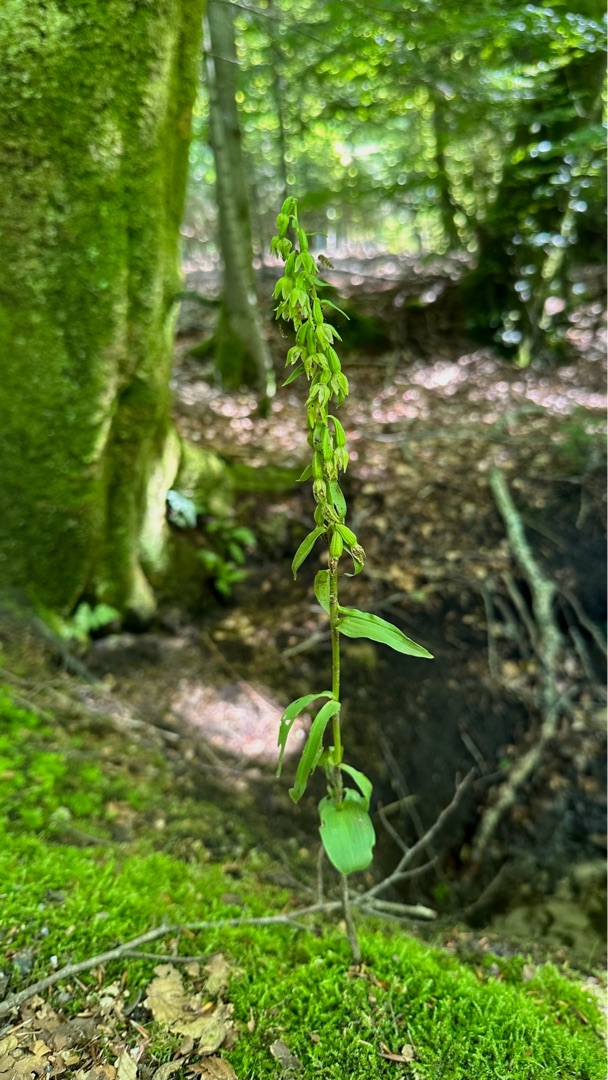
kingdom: Plantae
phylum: Tracheophyta
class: Liliopsida
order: Asparagales
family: Orchidaceae
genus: Epipactis
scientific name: Epipactis phyllanthes
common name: Nikkende hullæbe
